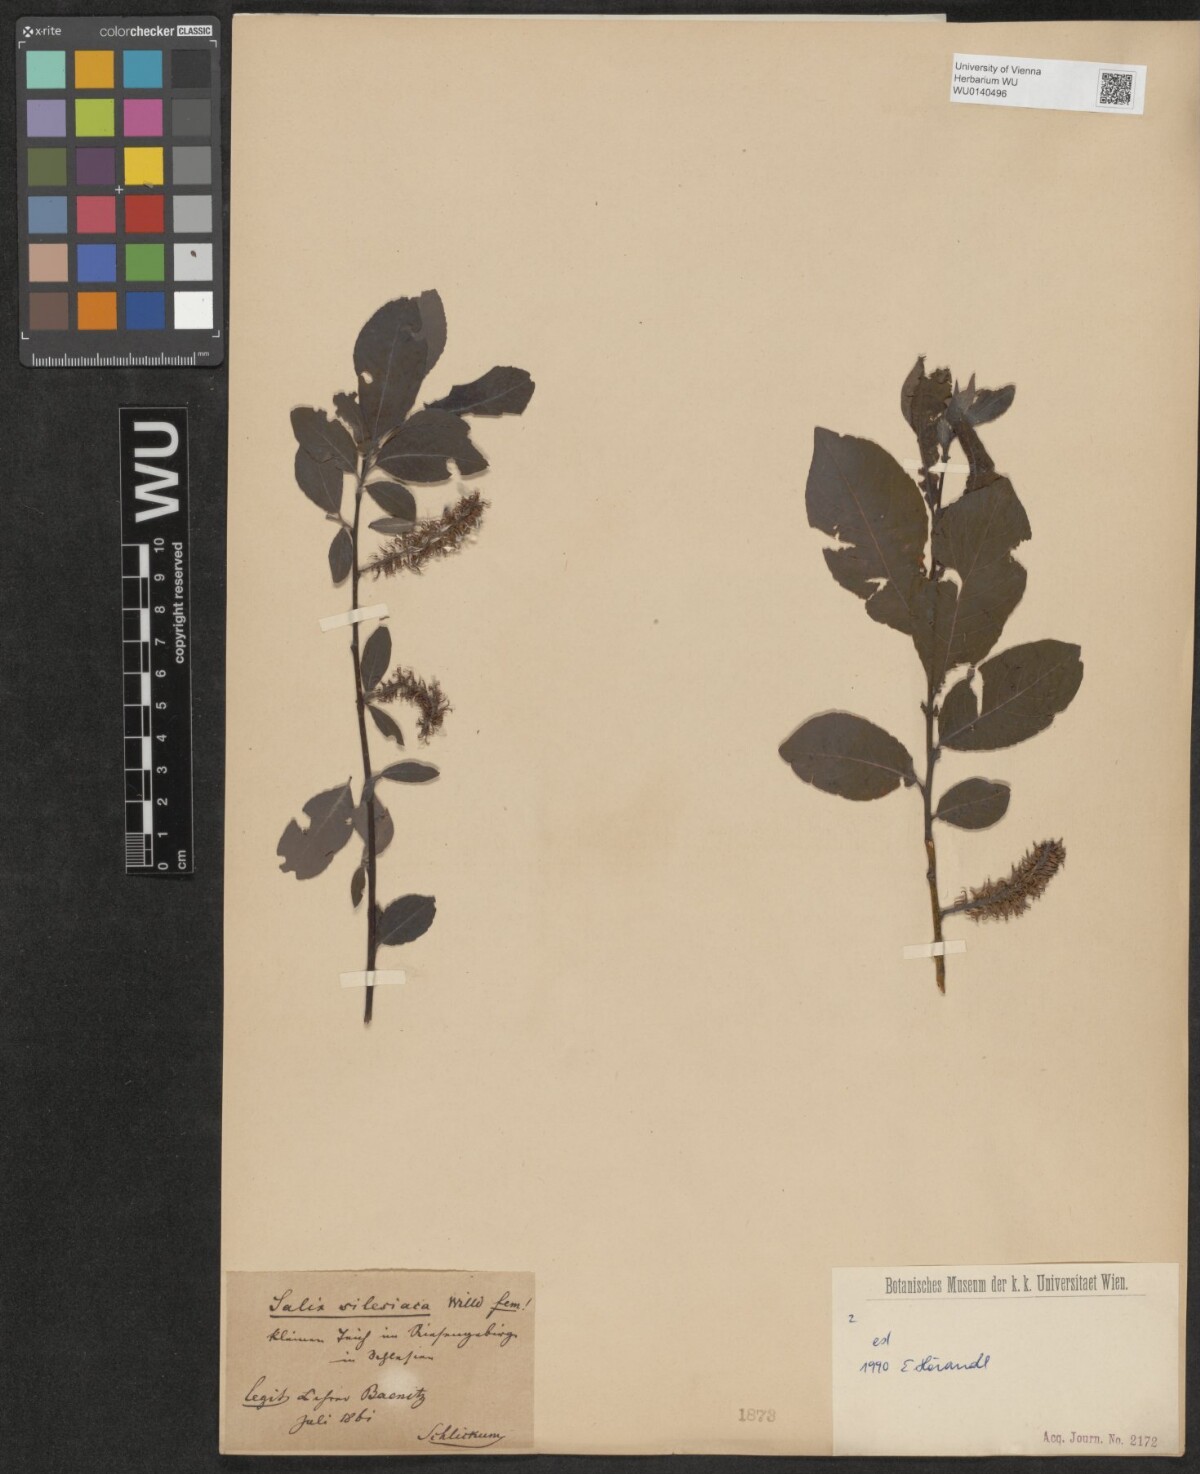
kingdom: Plantae
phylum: Tracheophyta
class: Magnoliopsida
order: Malpighiales
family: Salicaceae
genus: Salix
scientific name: Salix silesiaca
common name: Silesian willow
